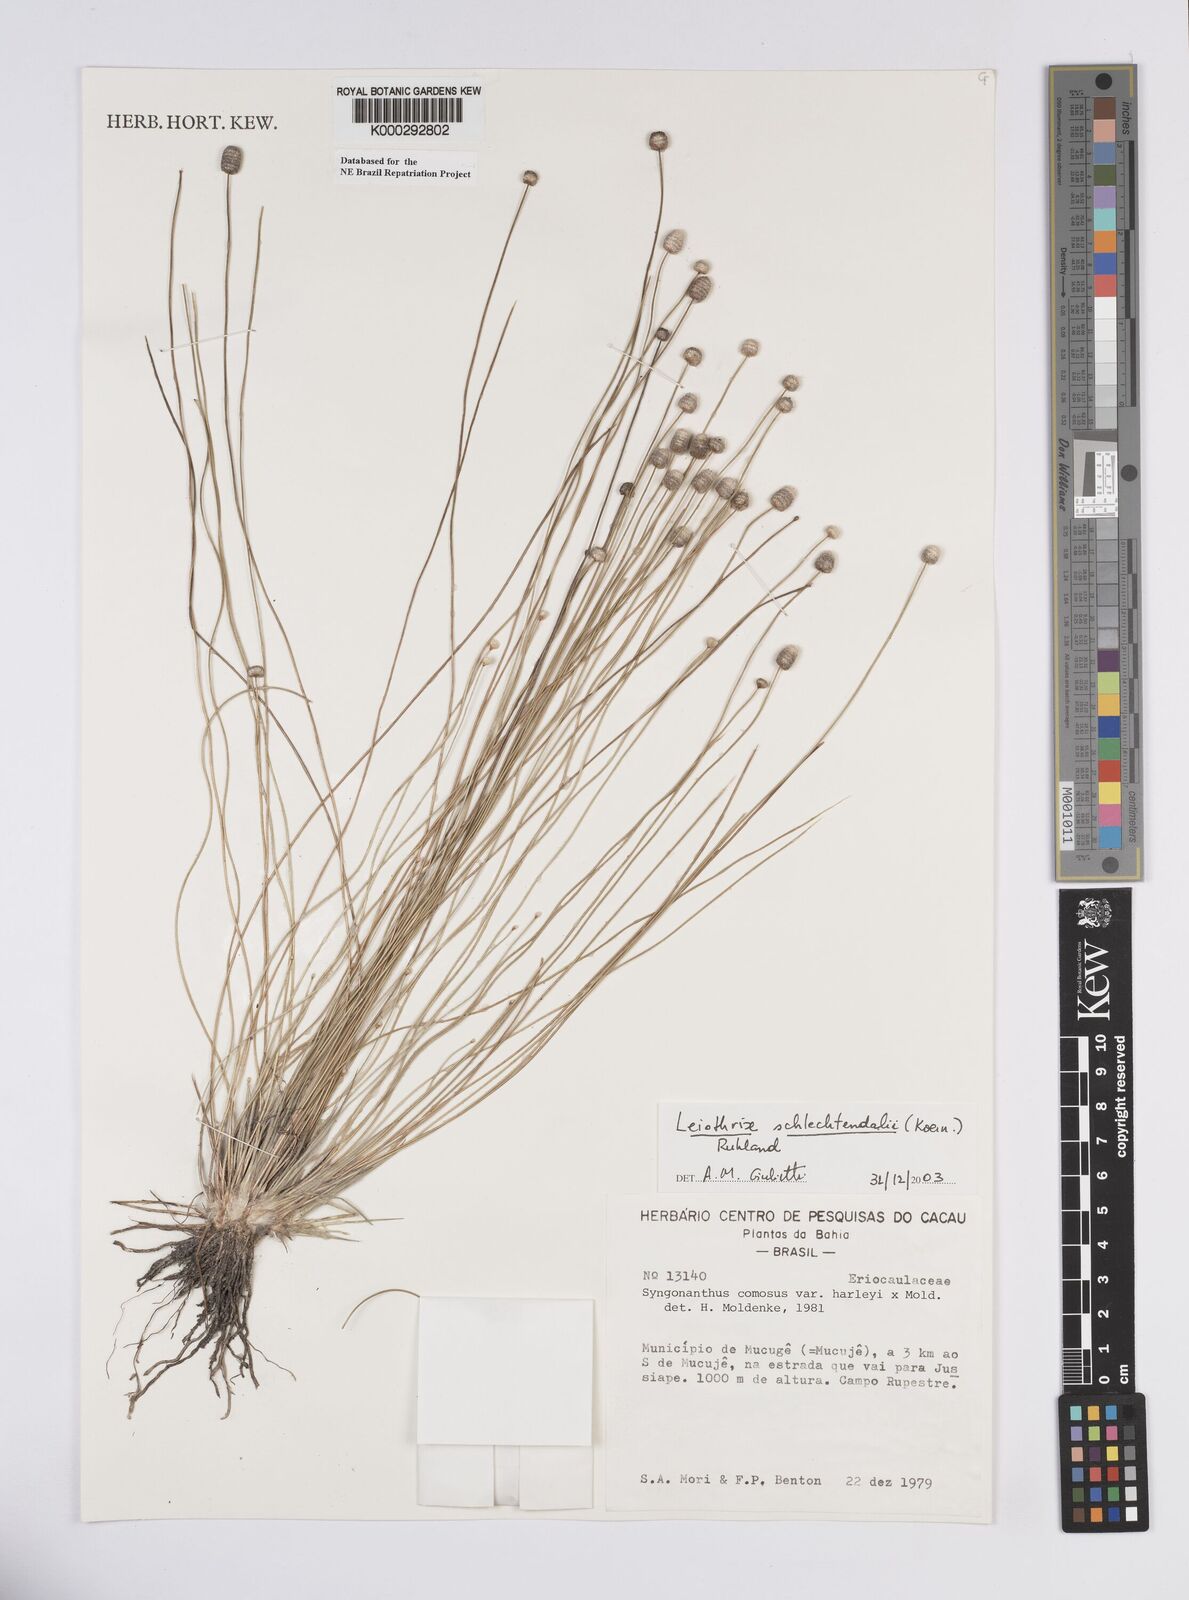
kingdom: Plantae
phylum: Tracheophyta
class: Liliopsida
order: Poales
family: Eriocaulaceae
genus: Leiothrix
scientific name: Leiothrix schlechtendalii
